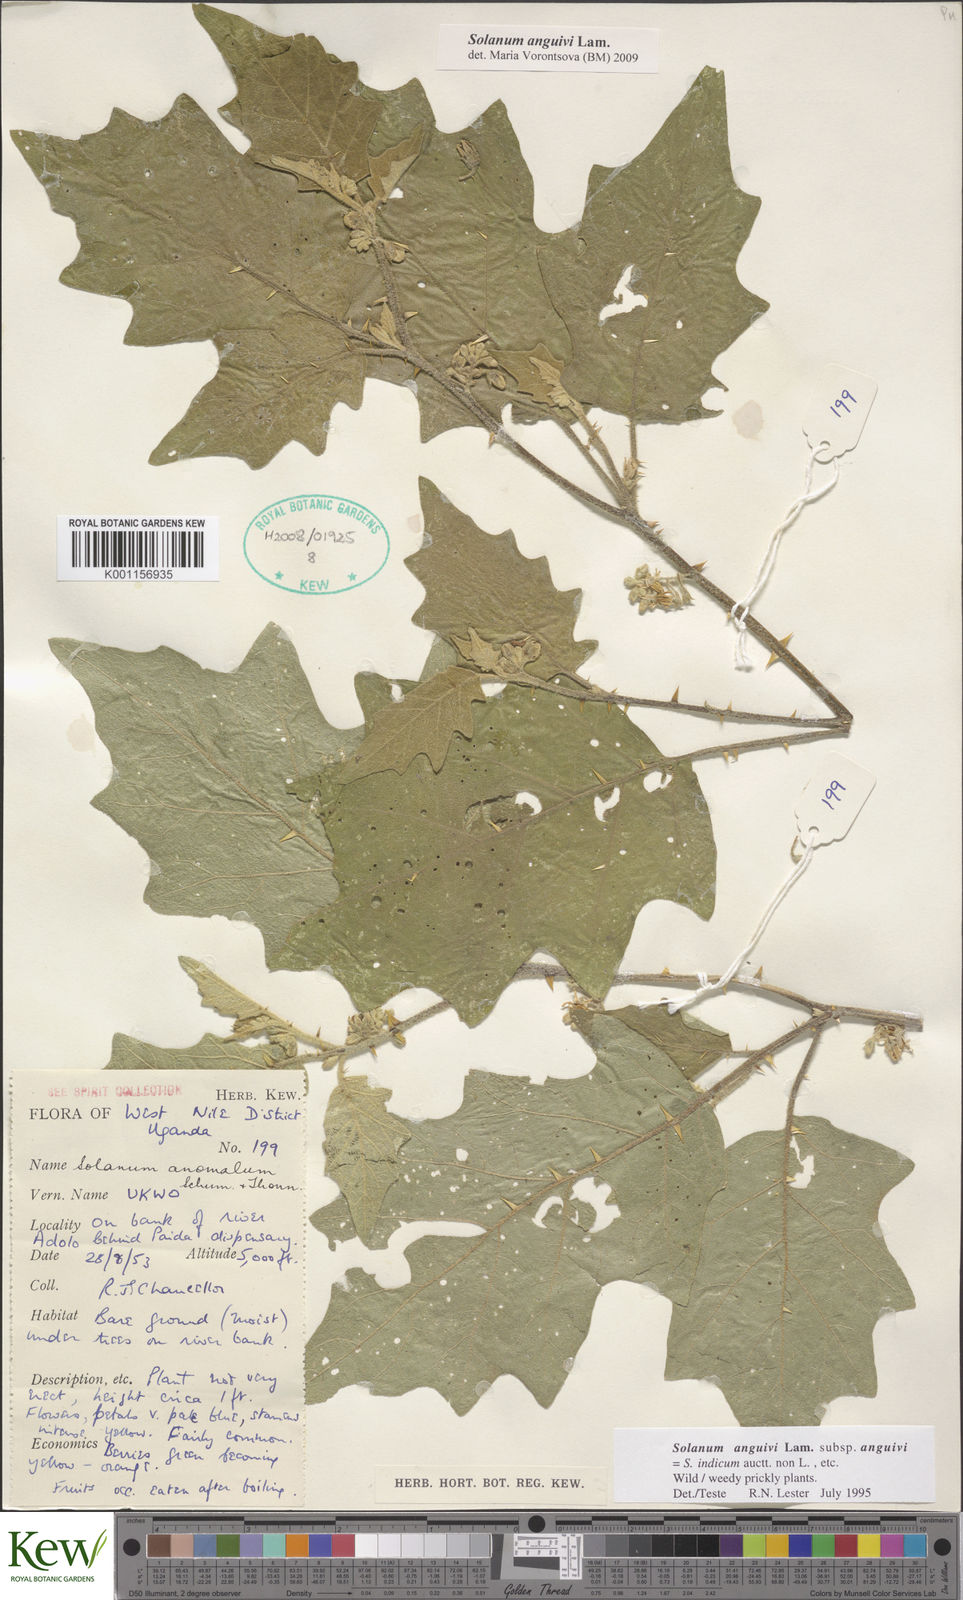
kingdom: Plantae
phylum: Tracheophyta
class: Magnoliopsida
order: Solanales
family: Solanaceae
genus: Solanum
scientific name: Solanum anguivi
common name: Forest bitterberry
